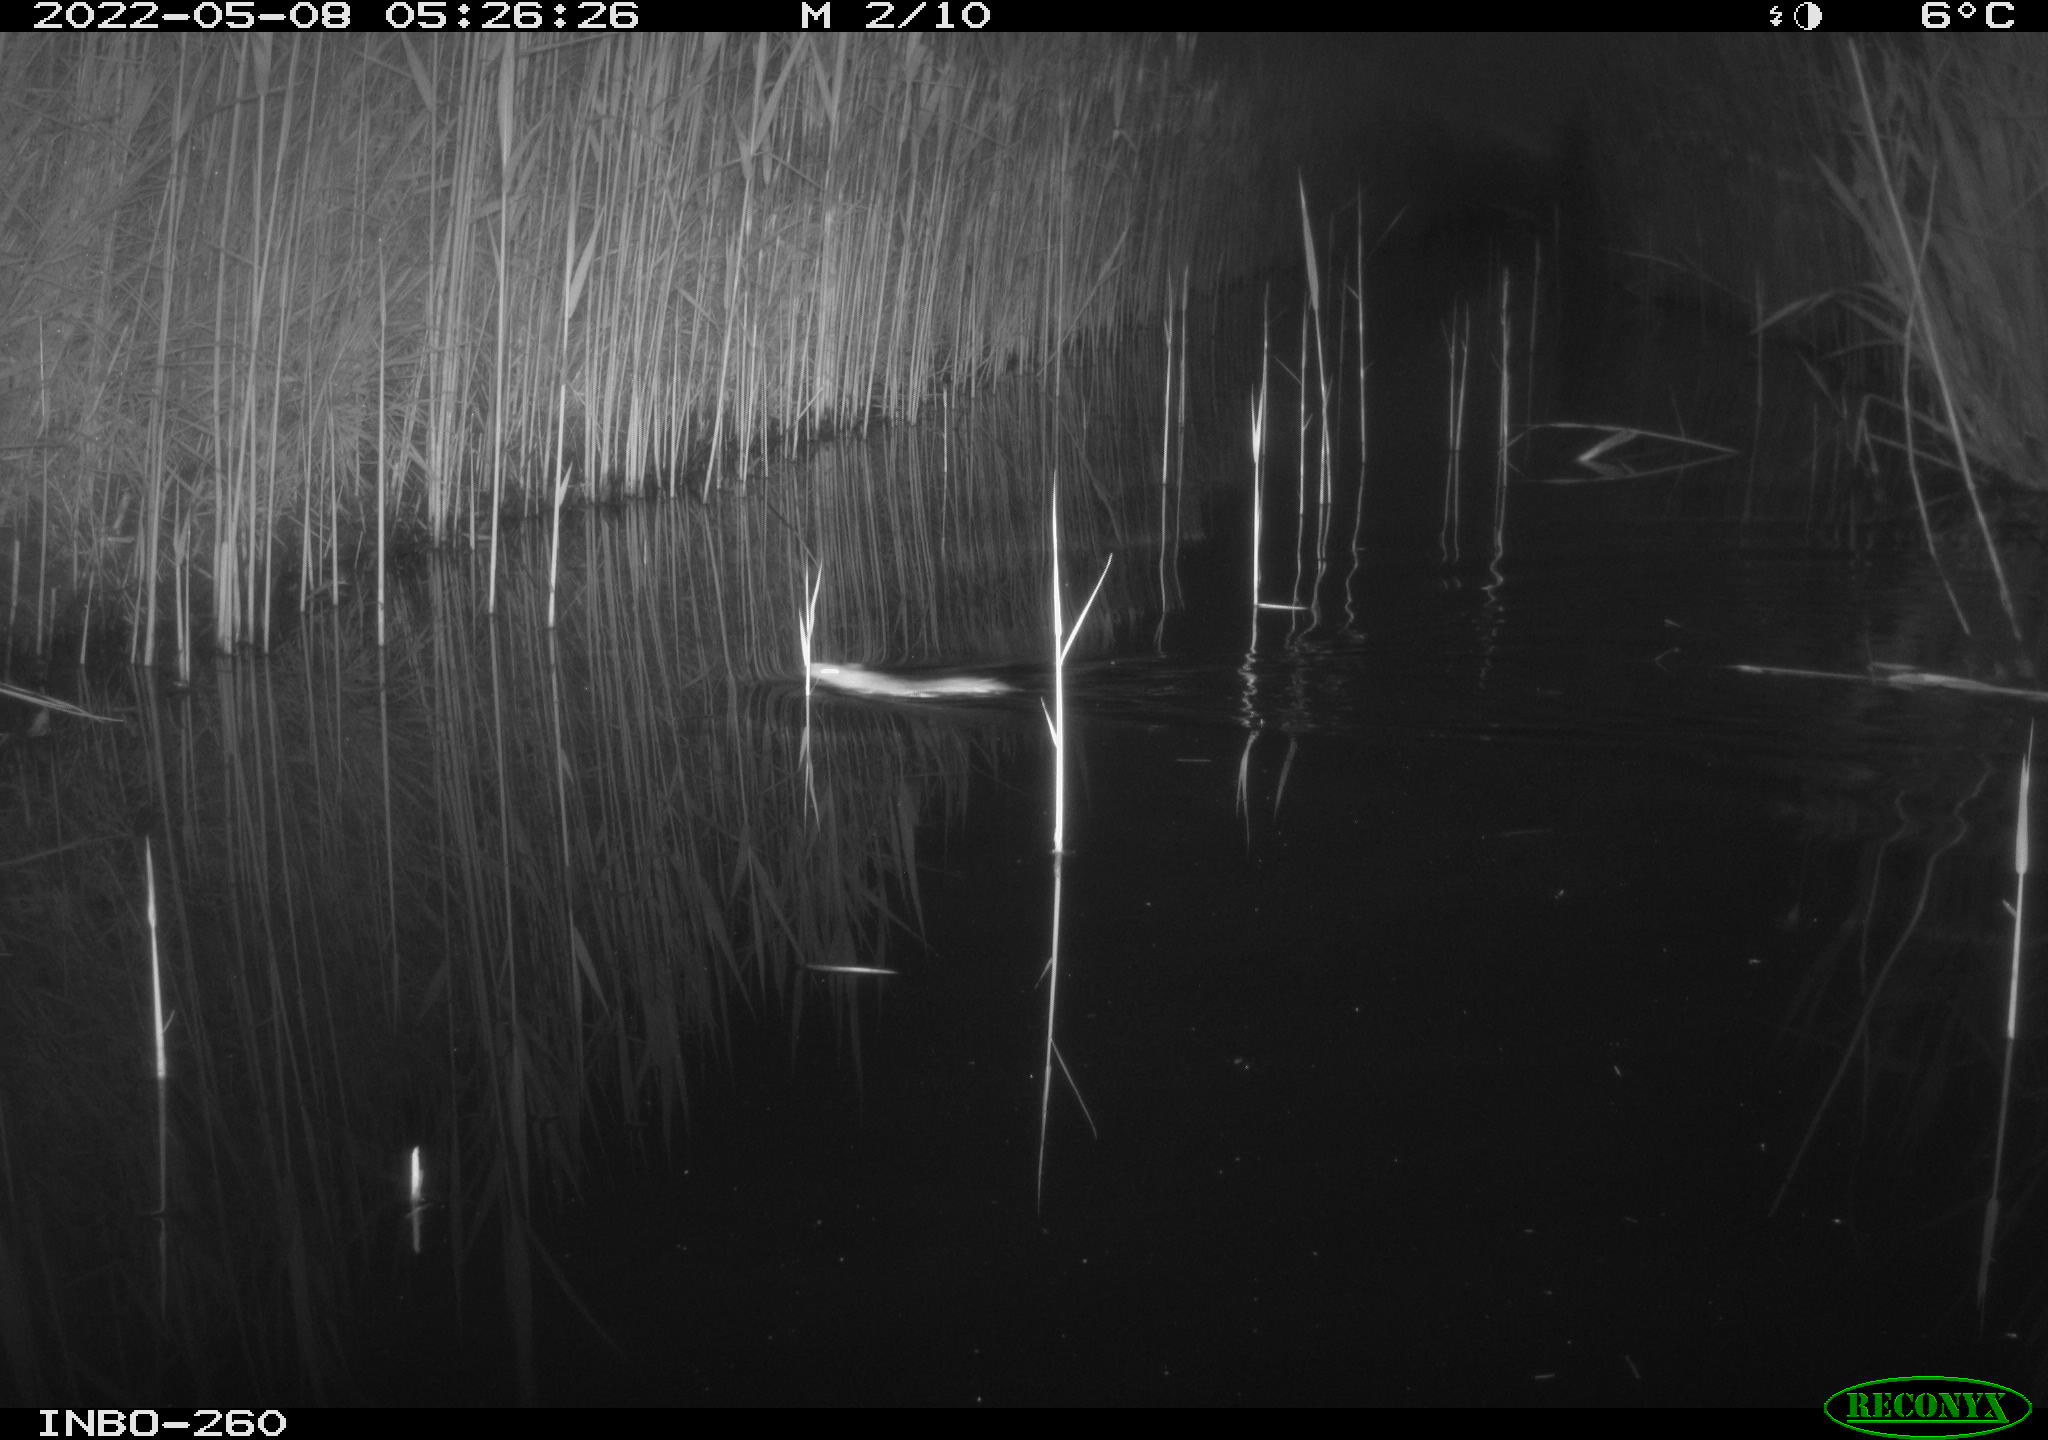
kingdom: Animalia
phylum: Chordata
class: Mammalia
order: Rodentia
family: Muridae
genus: Rattus
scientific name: Rattus norvegicus
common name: Brown rat
